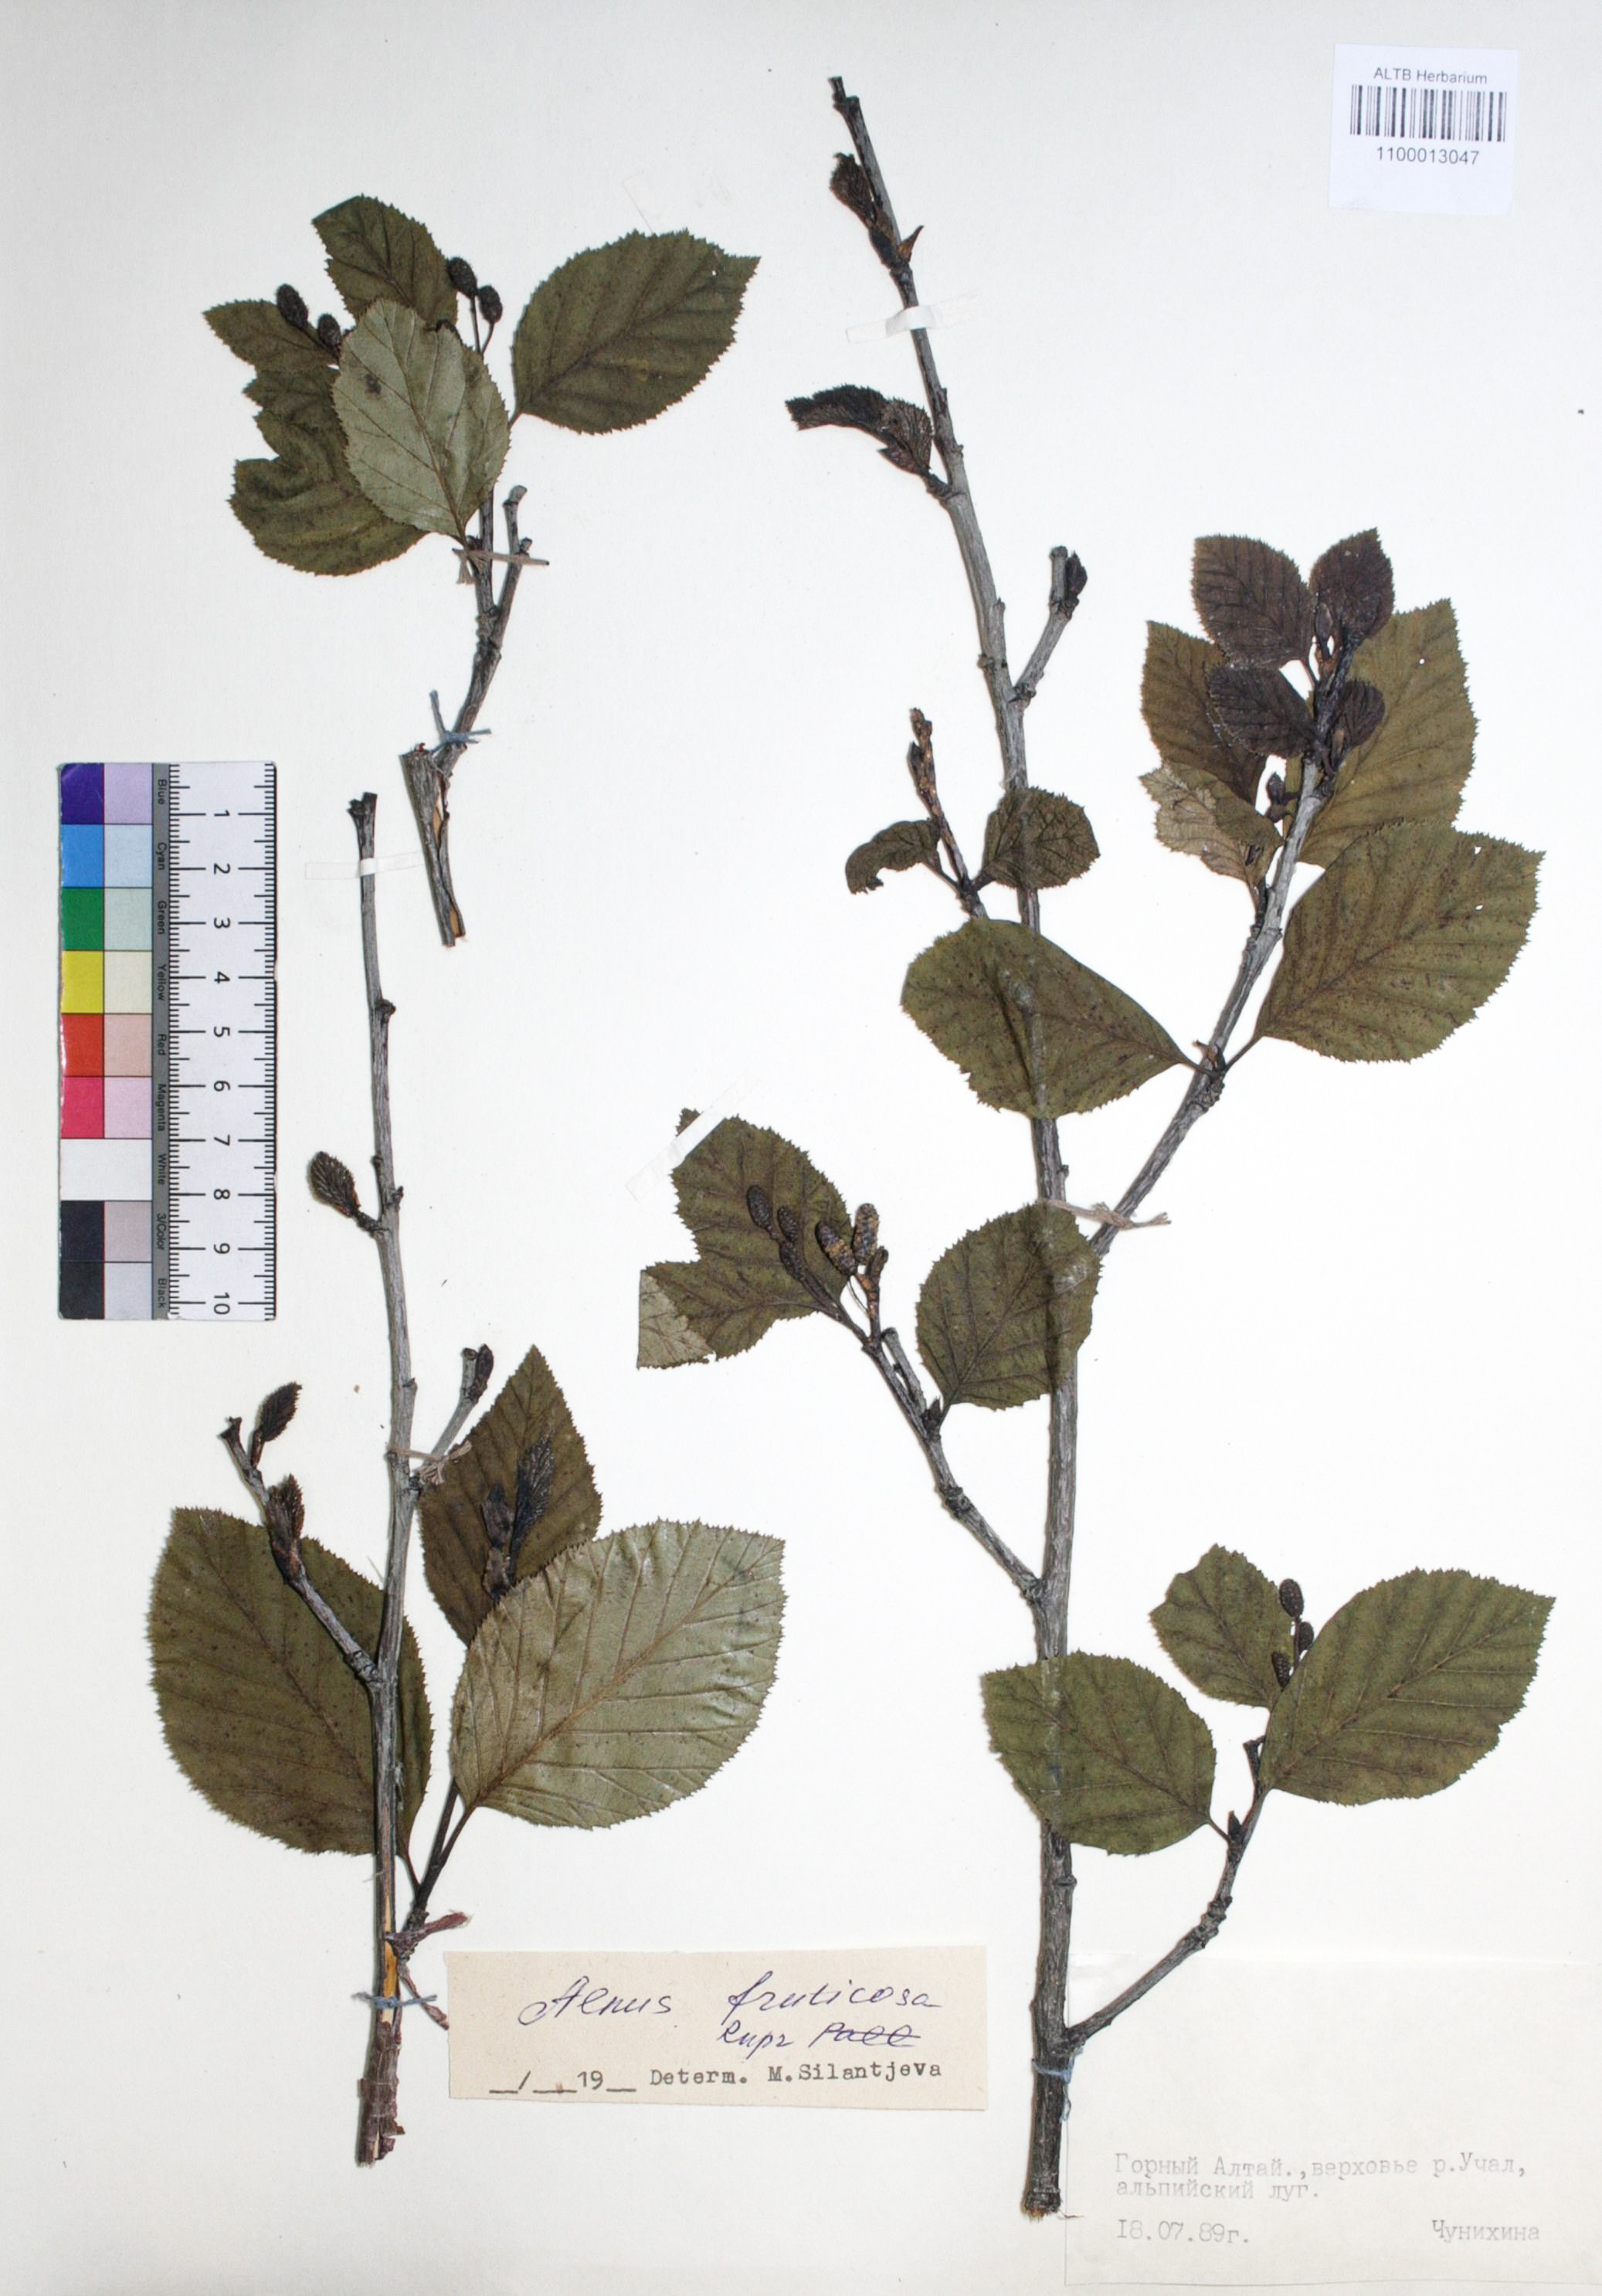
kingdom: Plantae
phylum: Tracheophyta
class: Magnoliopsida
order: Fagales
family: Betulaceae
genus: Alnus
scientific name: Alnus alnobetula
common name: Green alder
